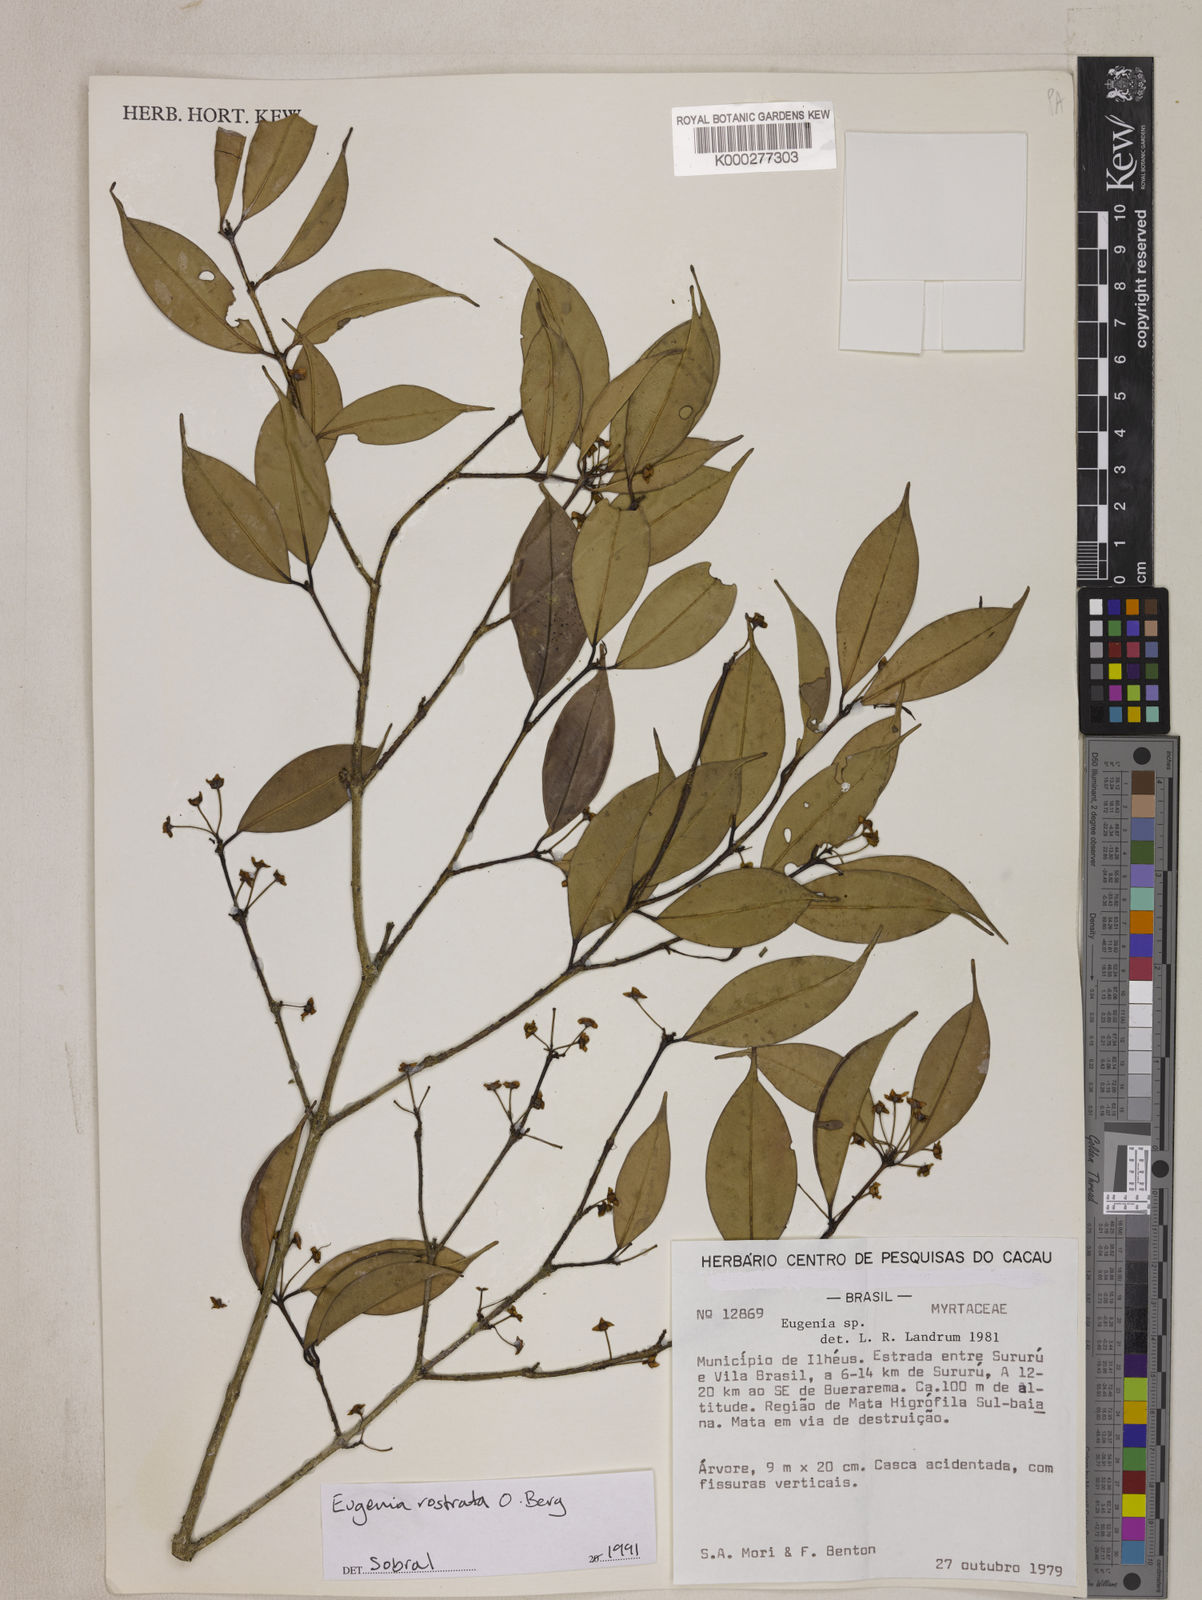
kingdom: Plantae
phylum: Tracheophyta
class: Magnoliopsida
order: Myrtales
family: Myrtaceae
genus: Eugenia
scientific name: Eugenia zuccarinii
